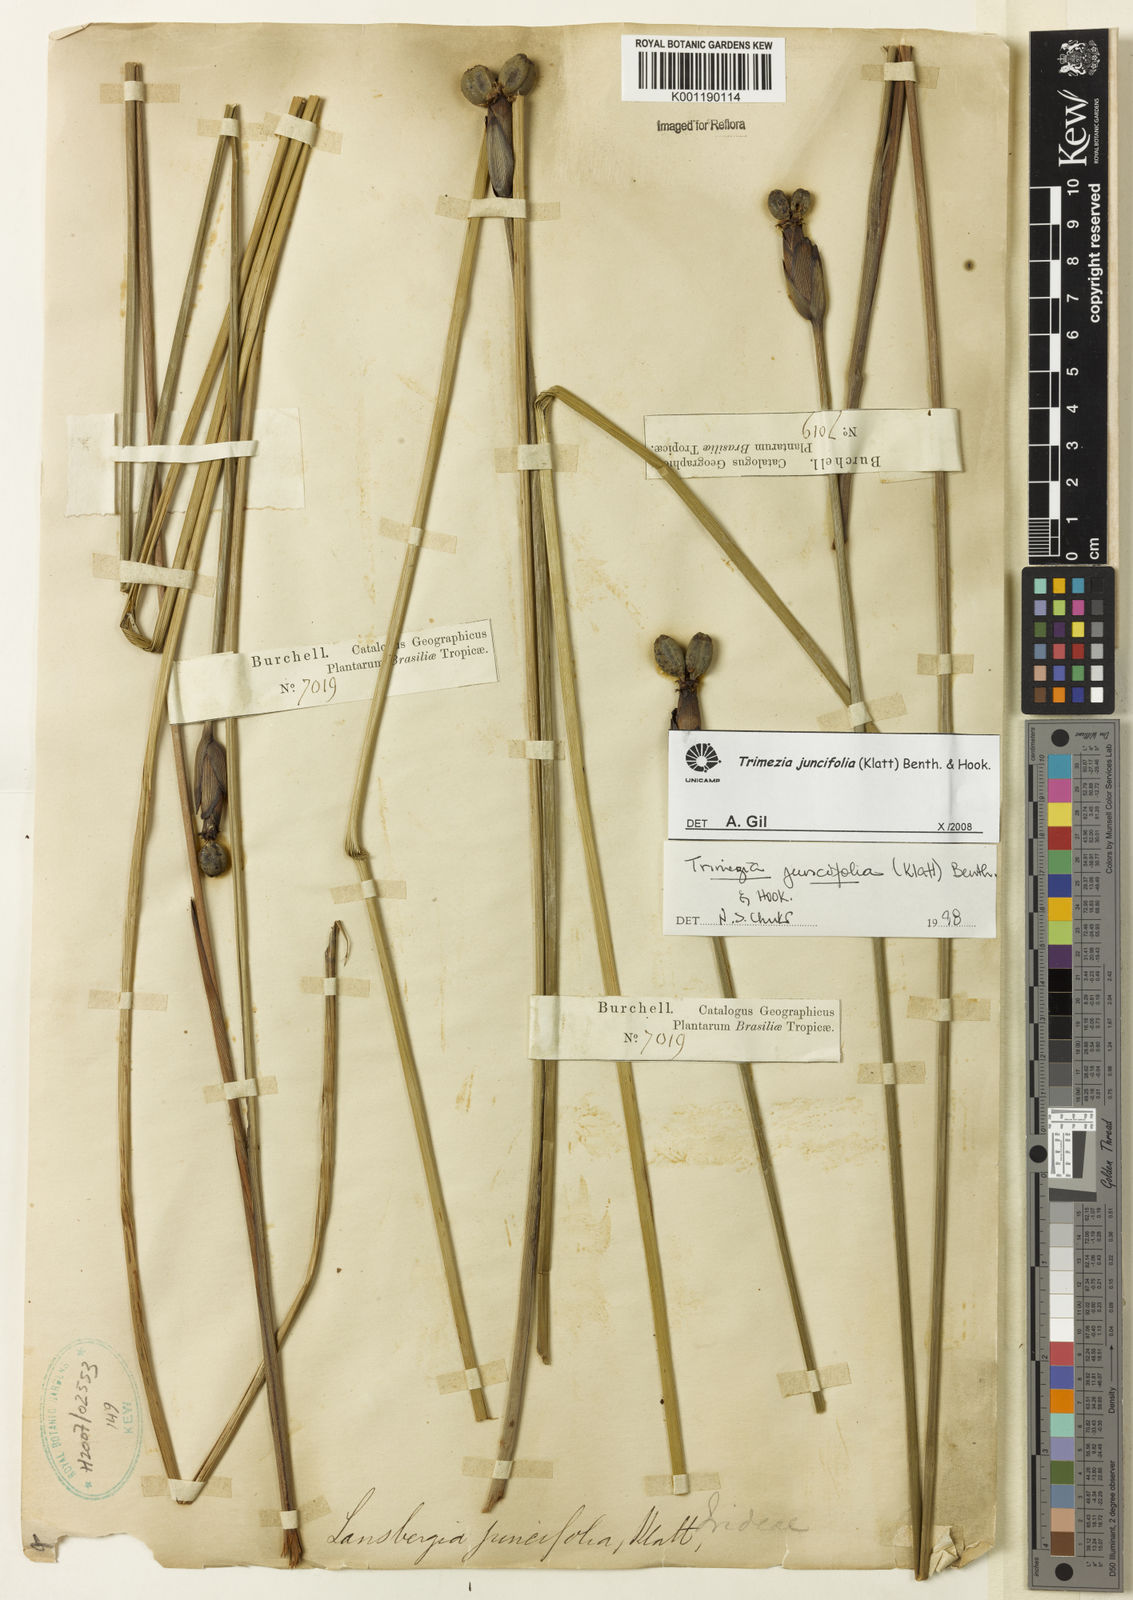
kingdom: Plantae
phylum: Tracheophyta
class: Liliopsida
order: Asparagales
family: Iridaceae
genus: Trimezia
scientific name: Trimezia juncifolia
